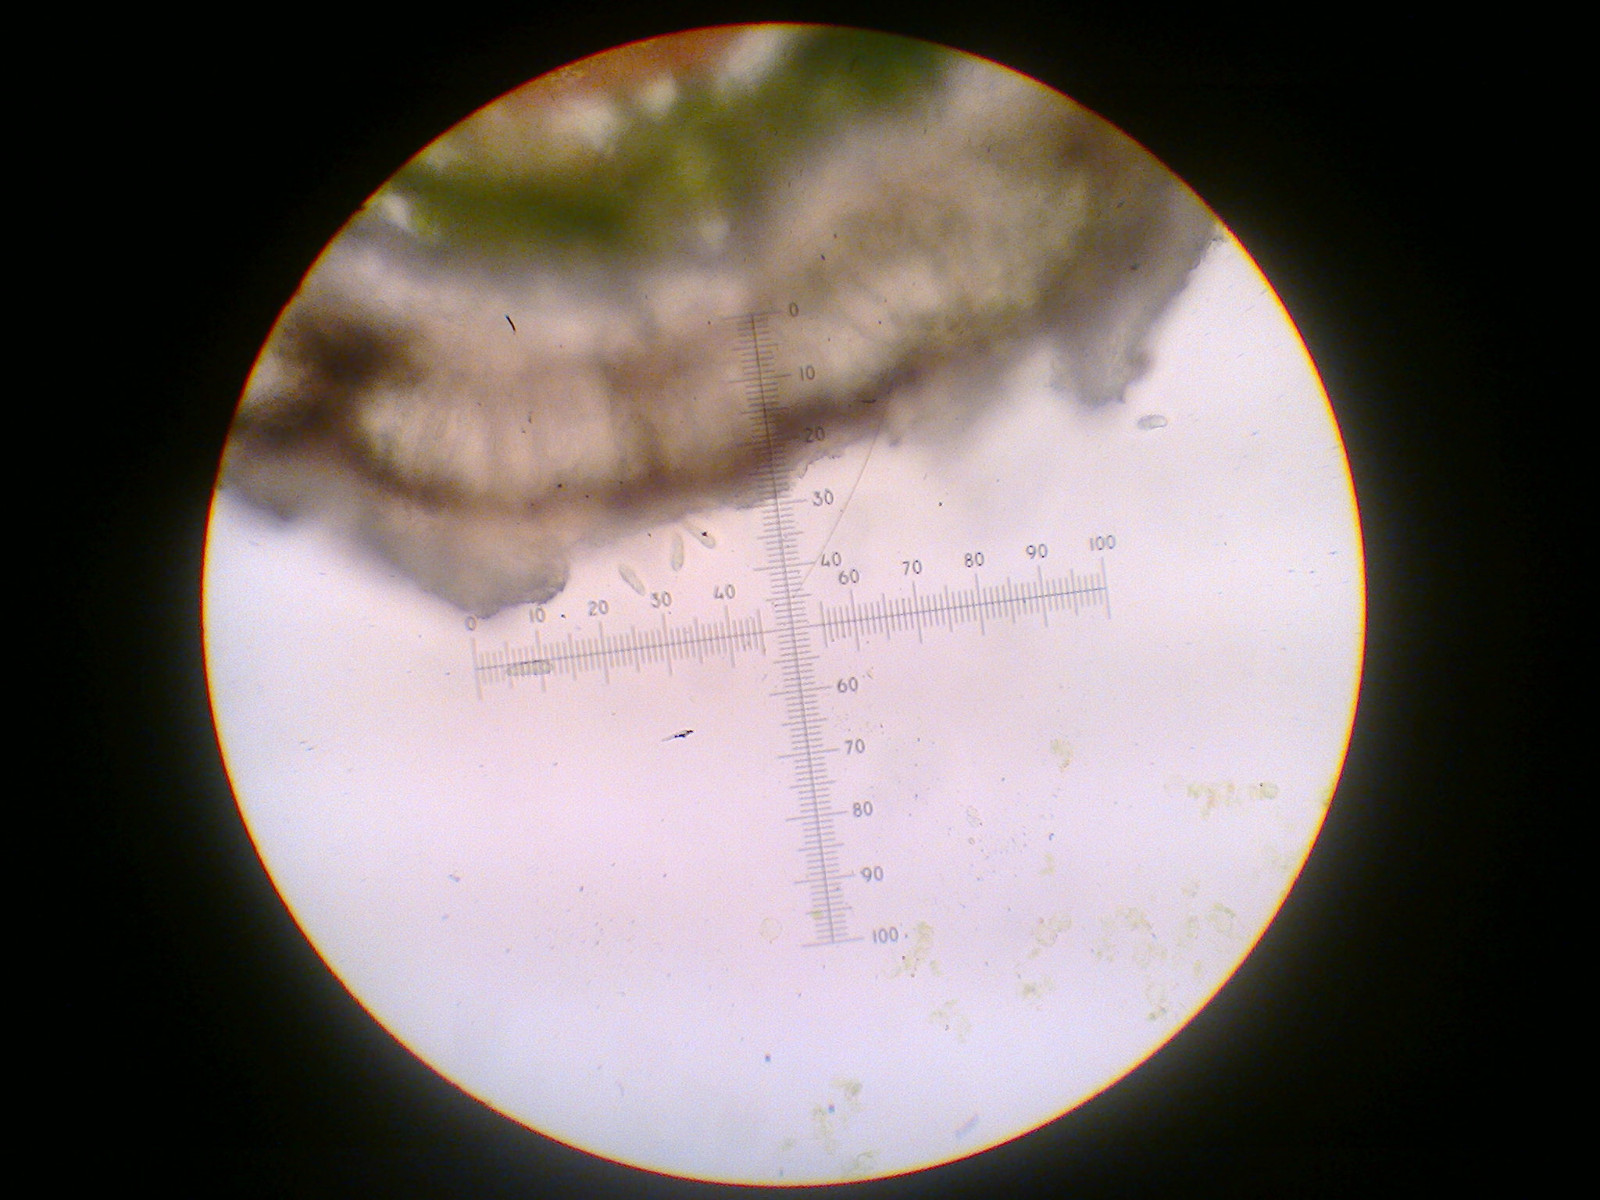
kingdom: Fungi
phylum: Ascomycota
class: Arthoniomycetes
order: Arthoniales
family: Arthoniaceae
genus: Arthonia
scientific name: Arthonia radiata
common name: stjerne-pletlav
